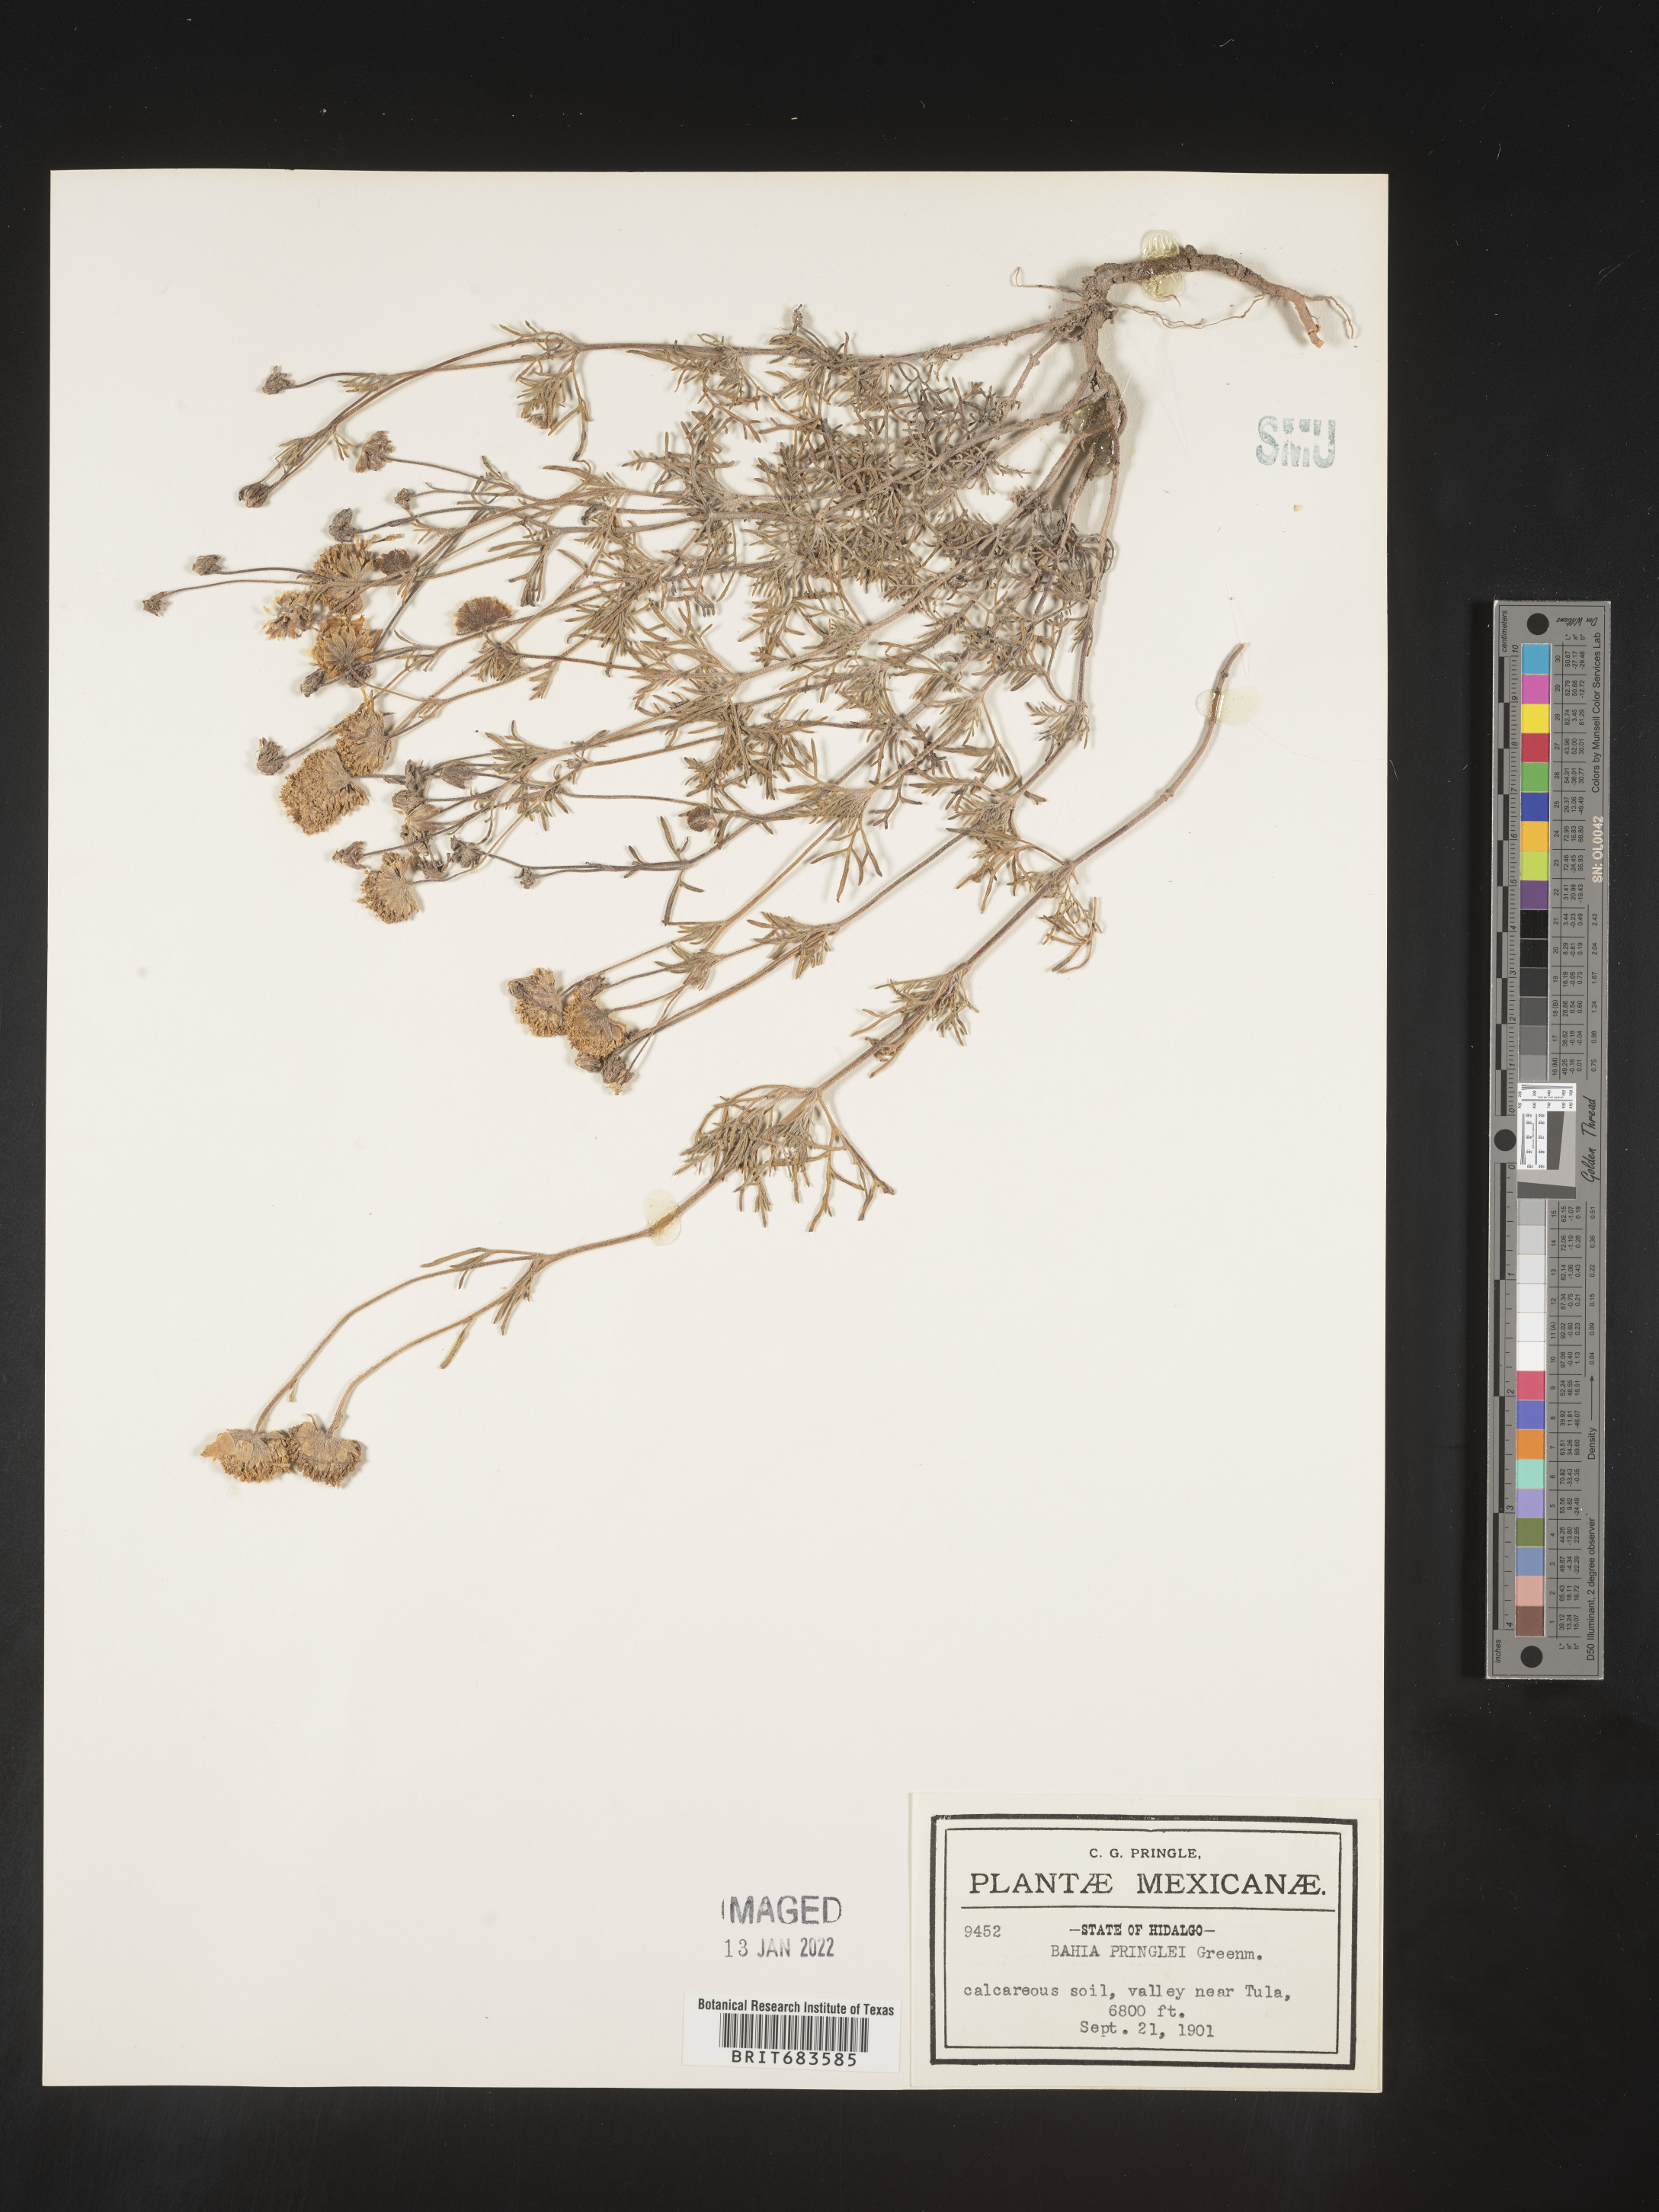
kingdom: Plantae
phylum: Tracheophyta
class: Magnoliopsida
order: Asterales
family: Asteraceae
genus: Bahia
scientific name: Bahia
